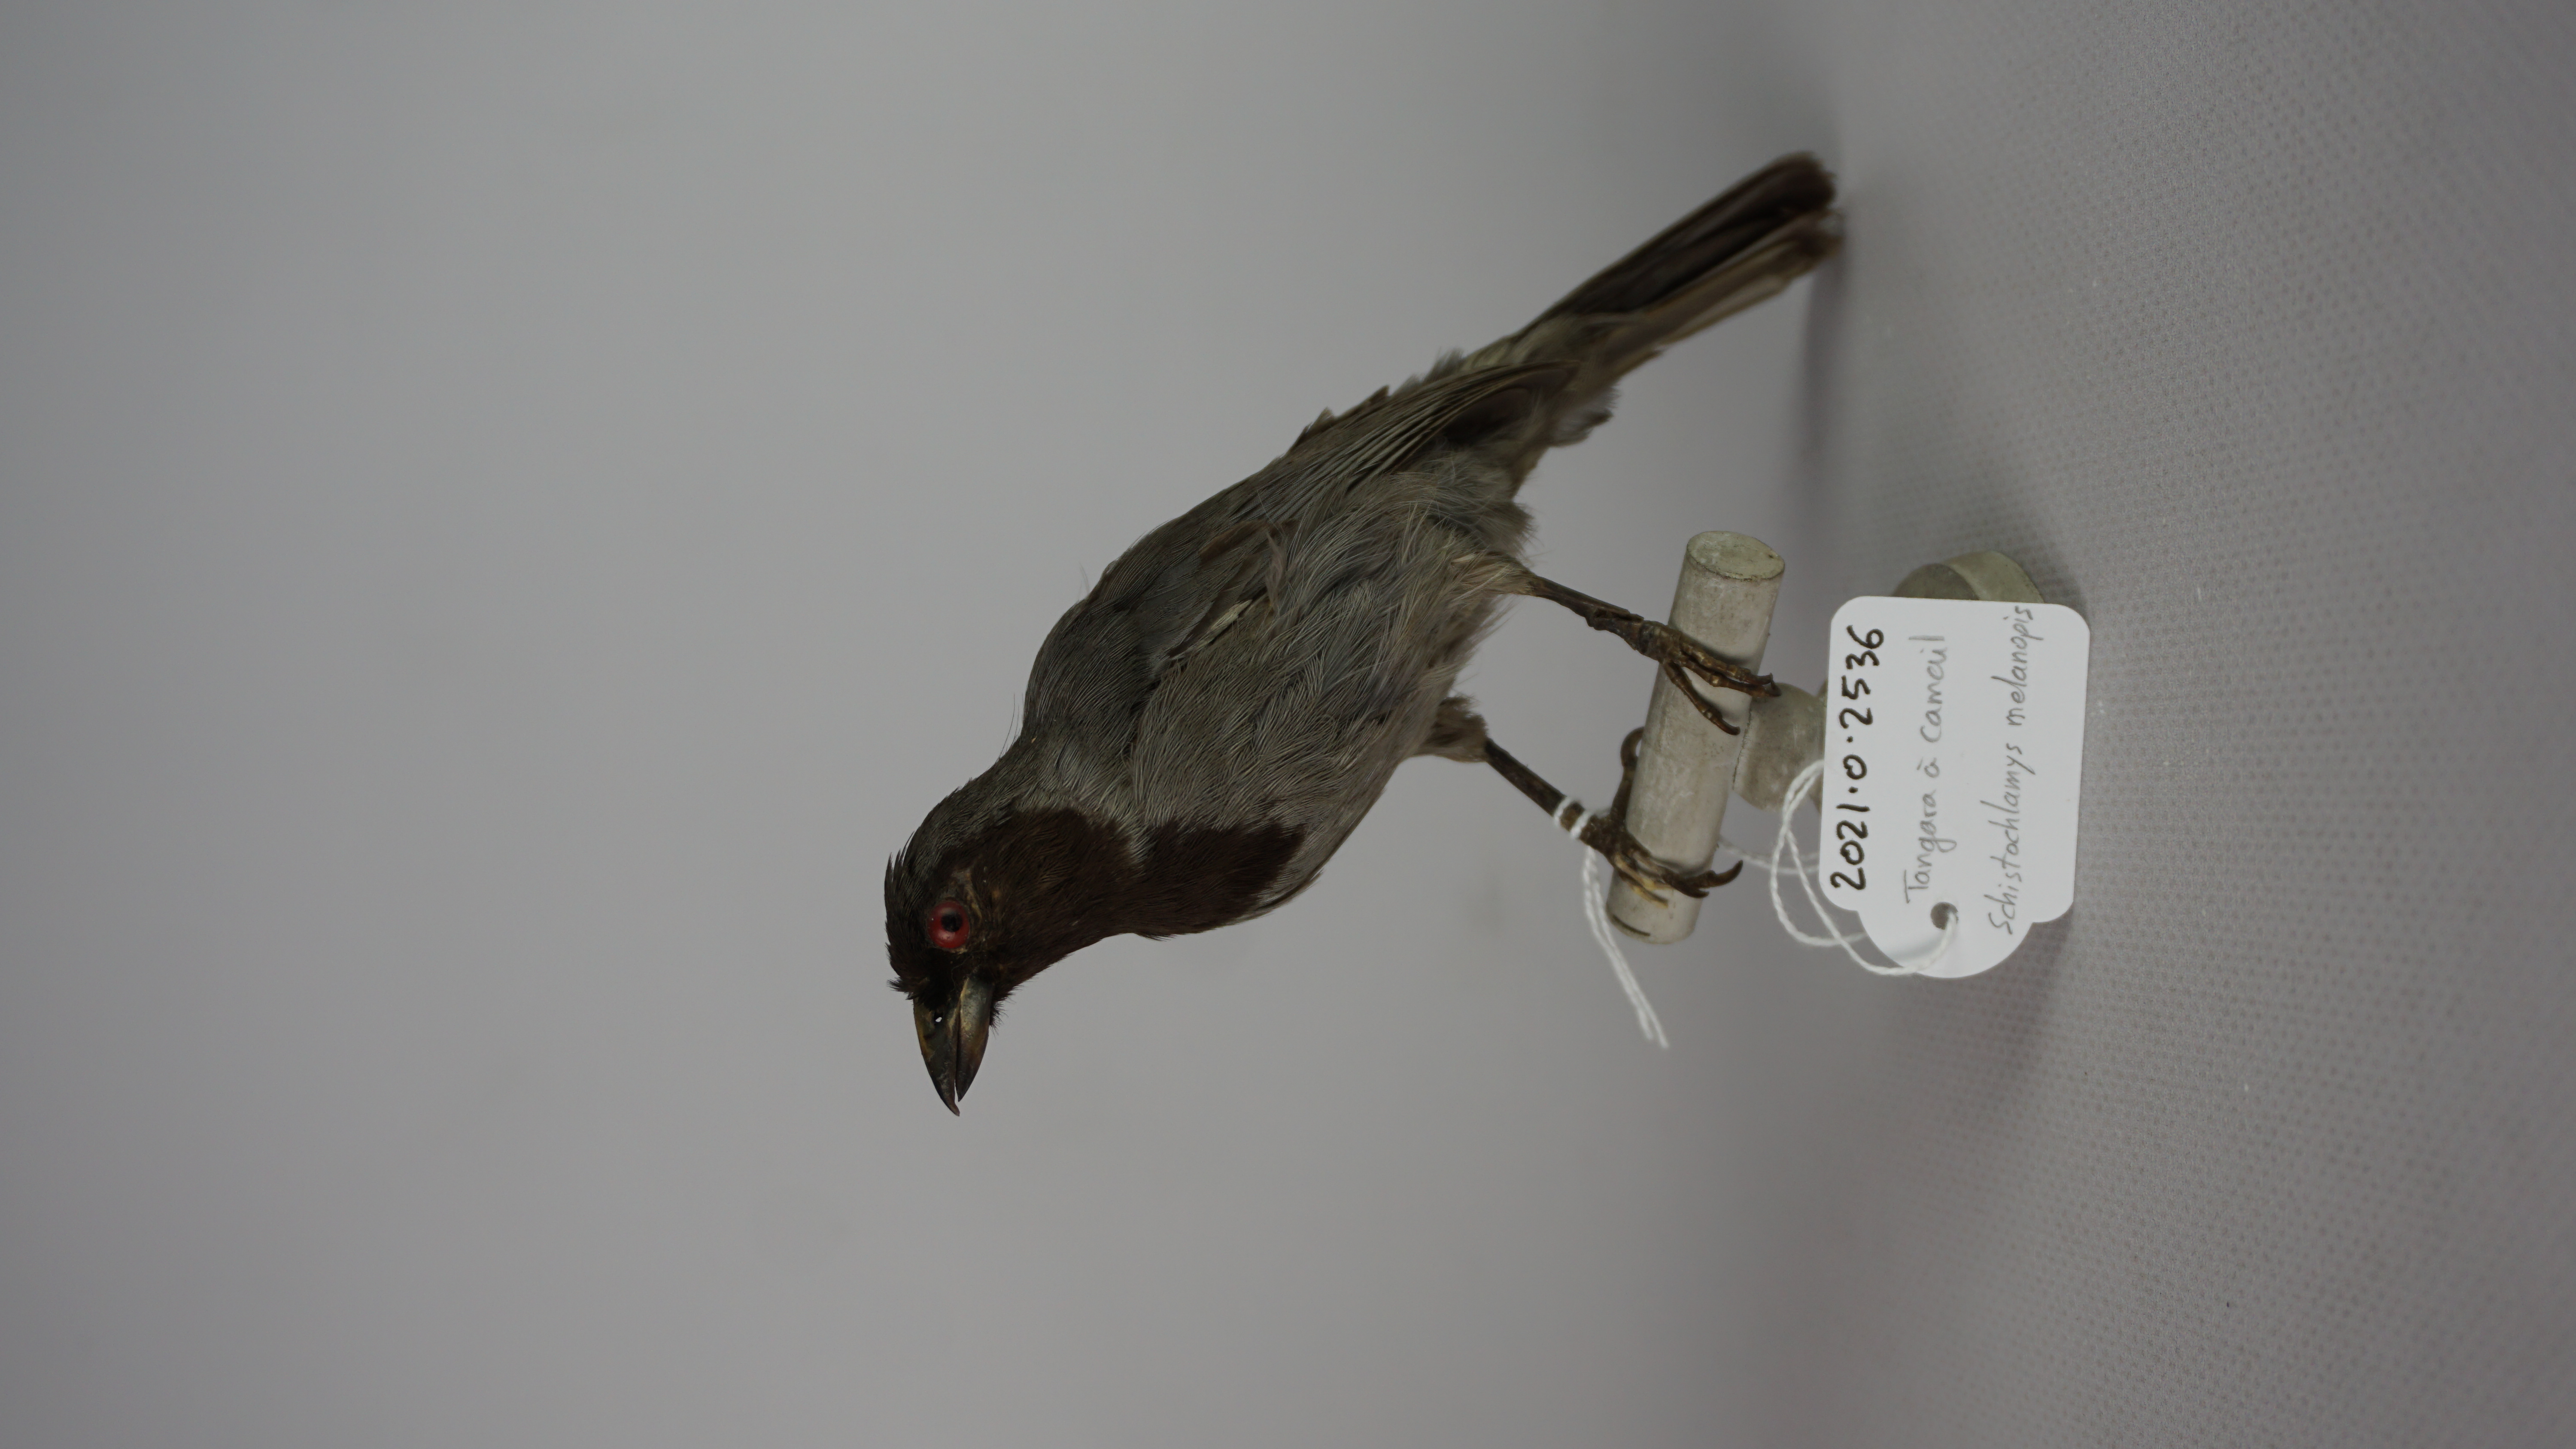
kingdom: Animalia
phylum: Chordata
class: Aves
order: Passeriformes
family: Thraupidae
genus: Schistochlamys
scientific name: Schistochlamys melanopis
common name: Black-faced tanager
